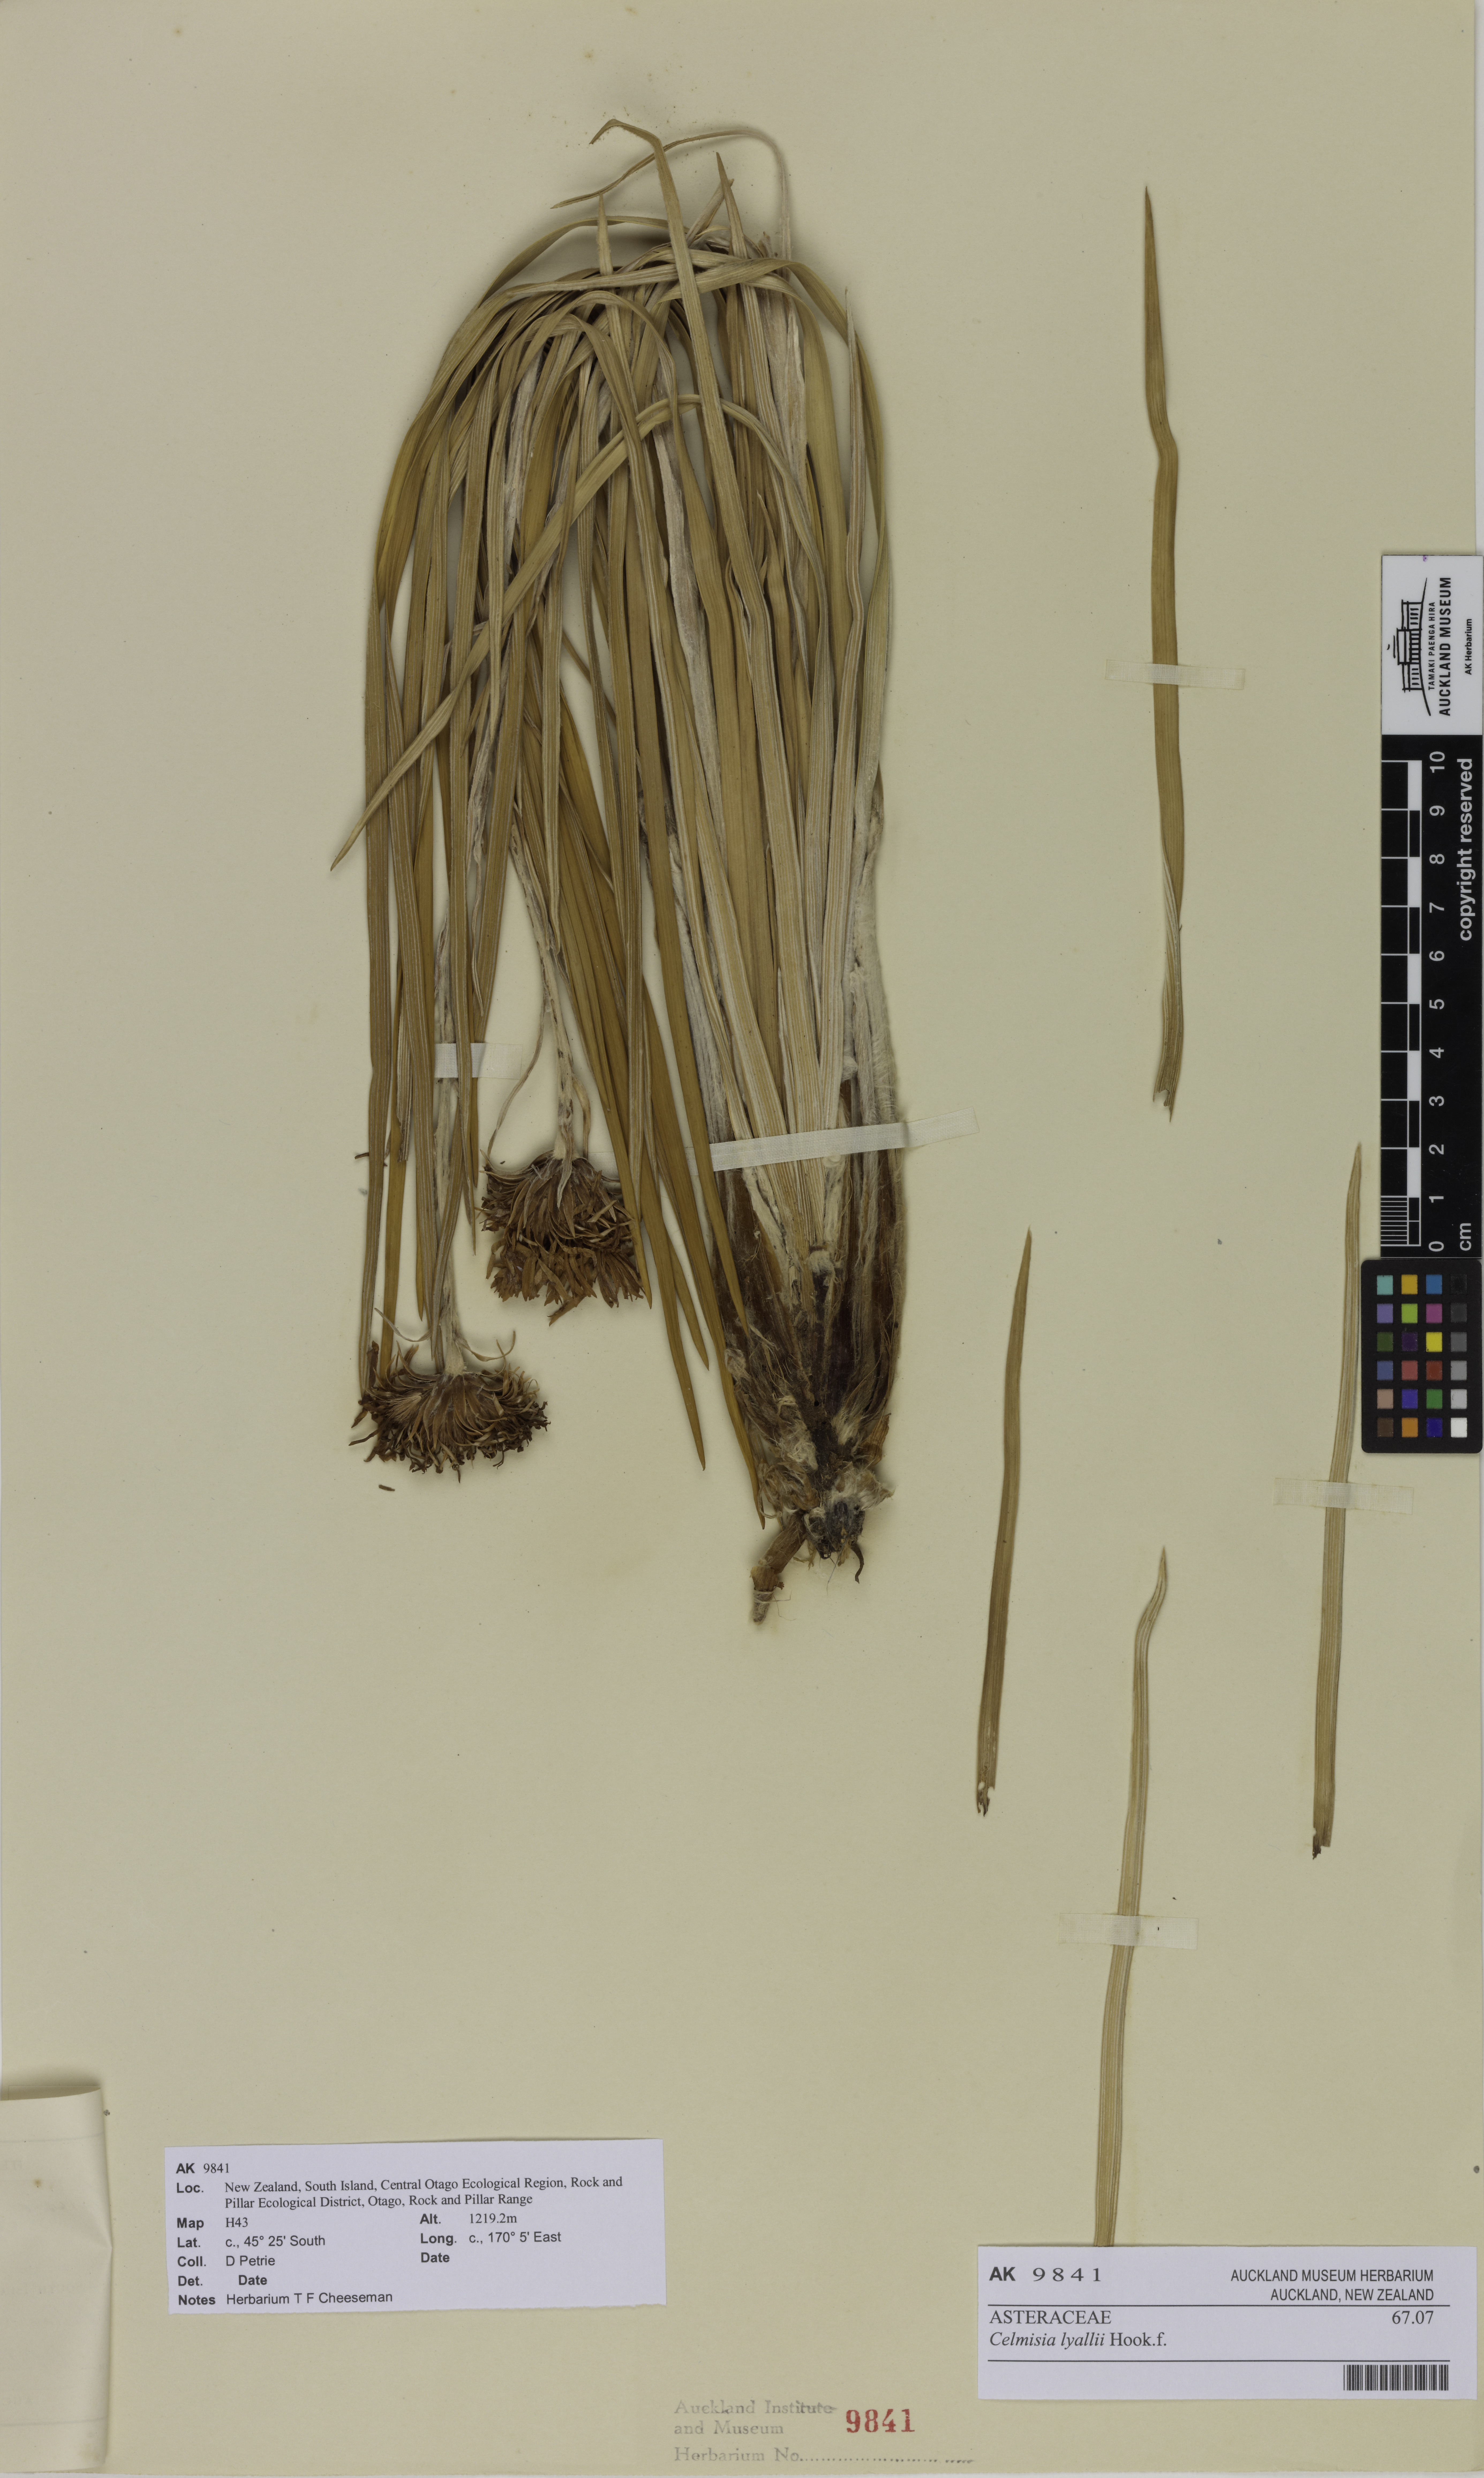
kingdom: Plantae
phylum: Tracheophyta
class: Magnoliopsida
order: Asterales
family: Asteraceae
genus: Celmisia
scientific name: Celmisia lyallii
